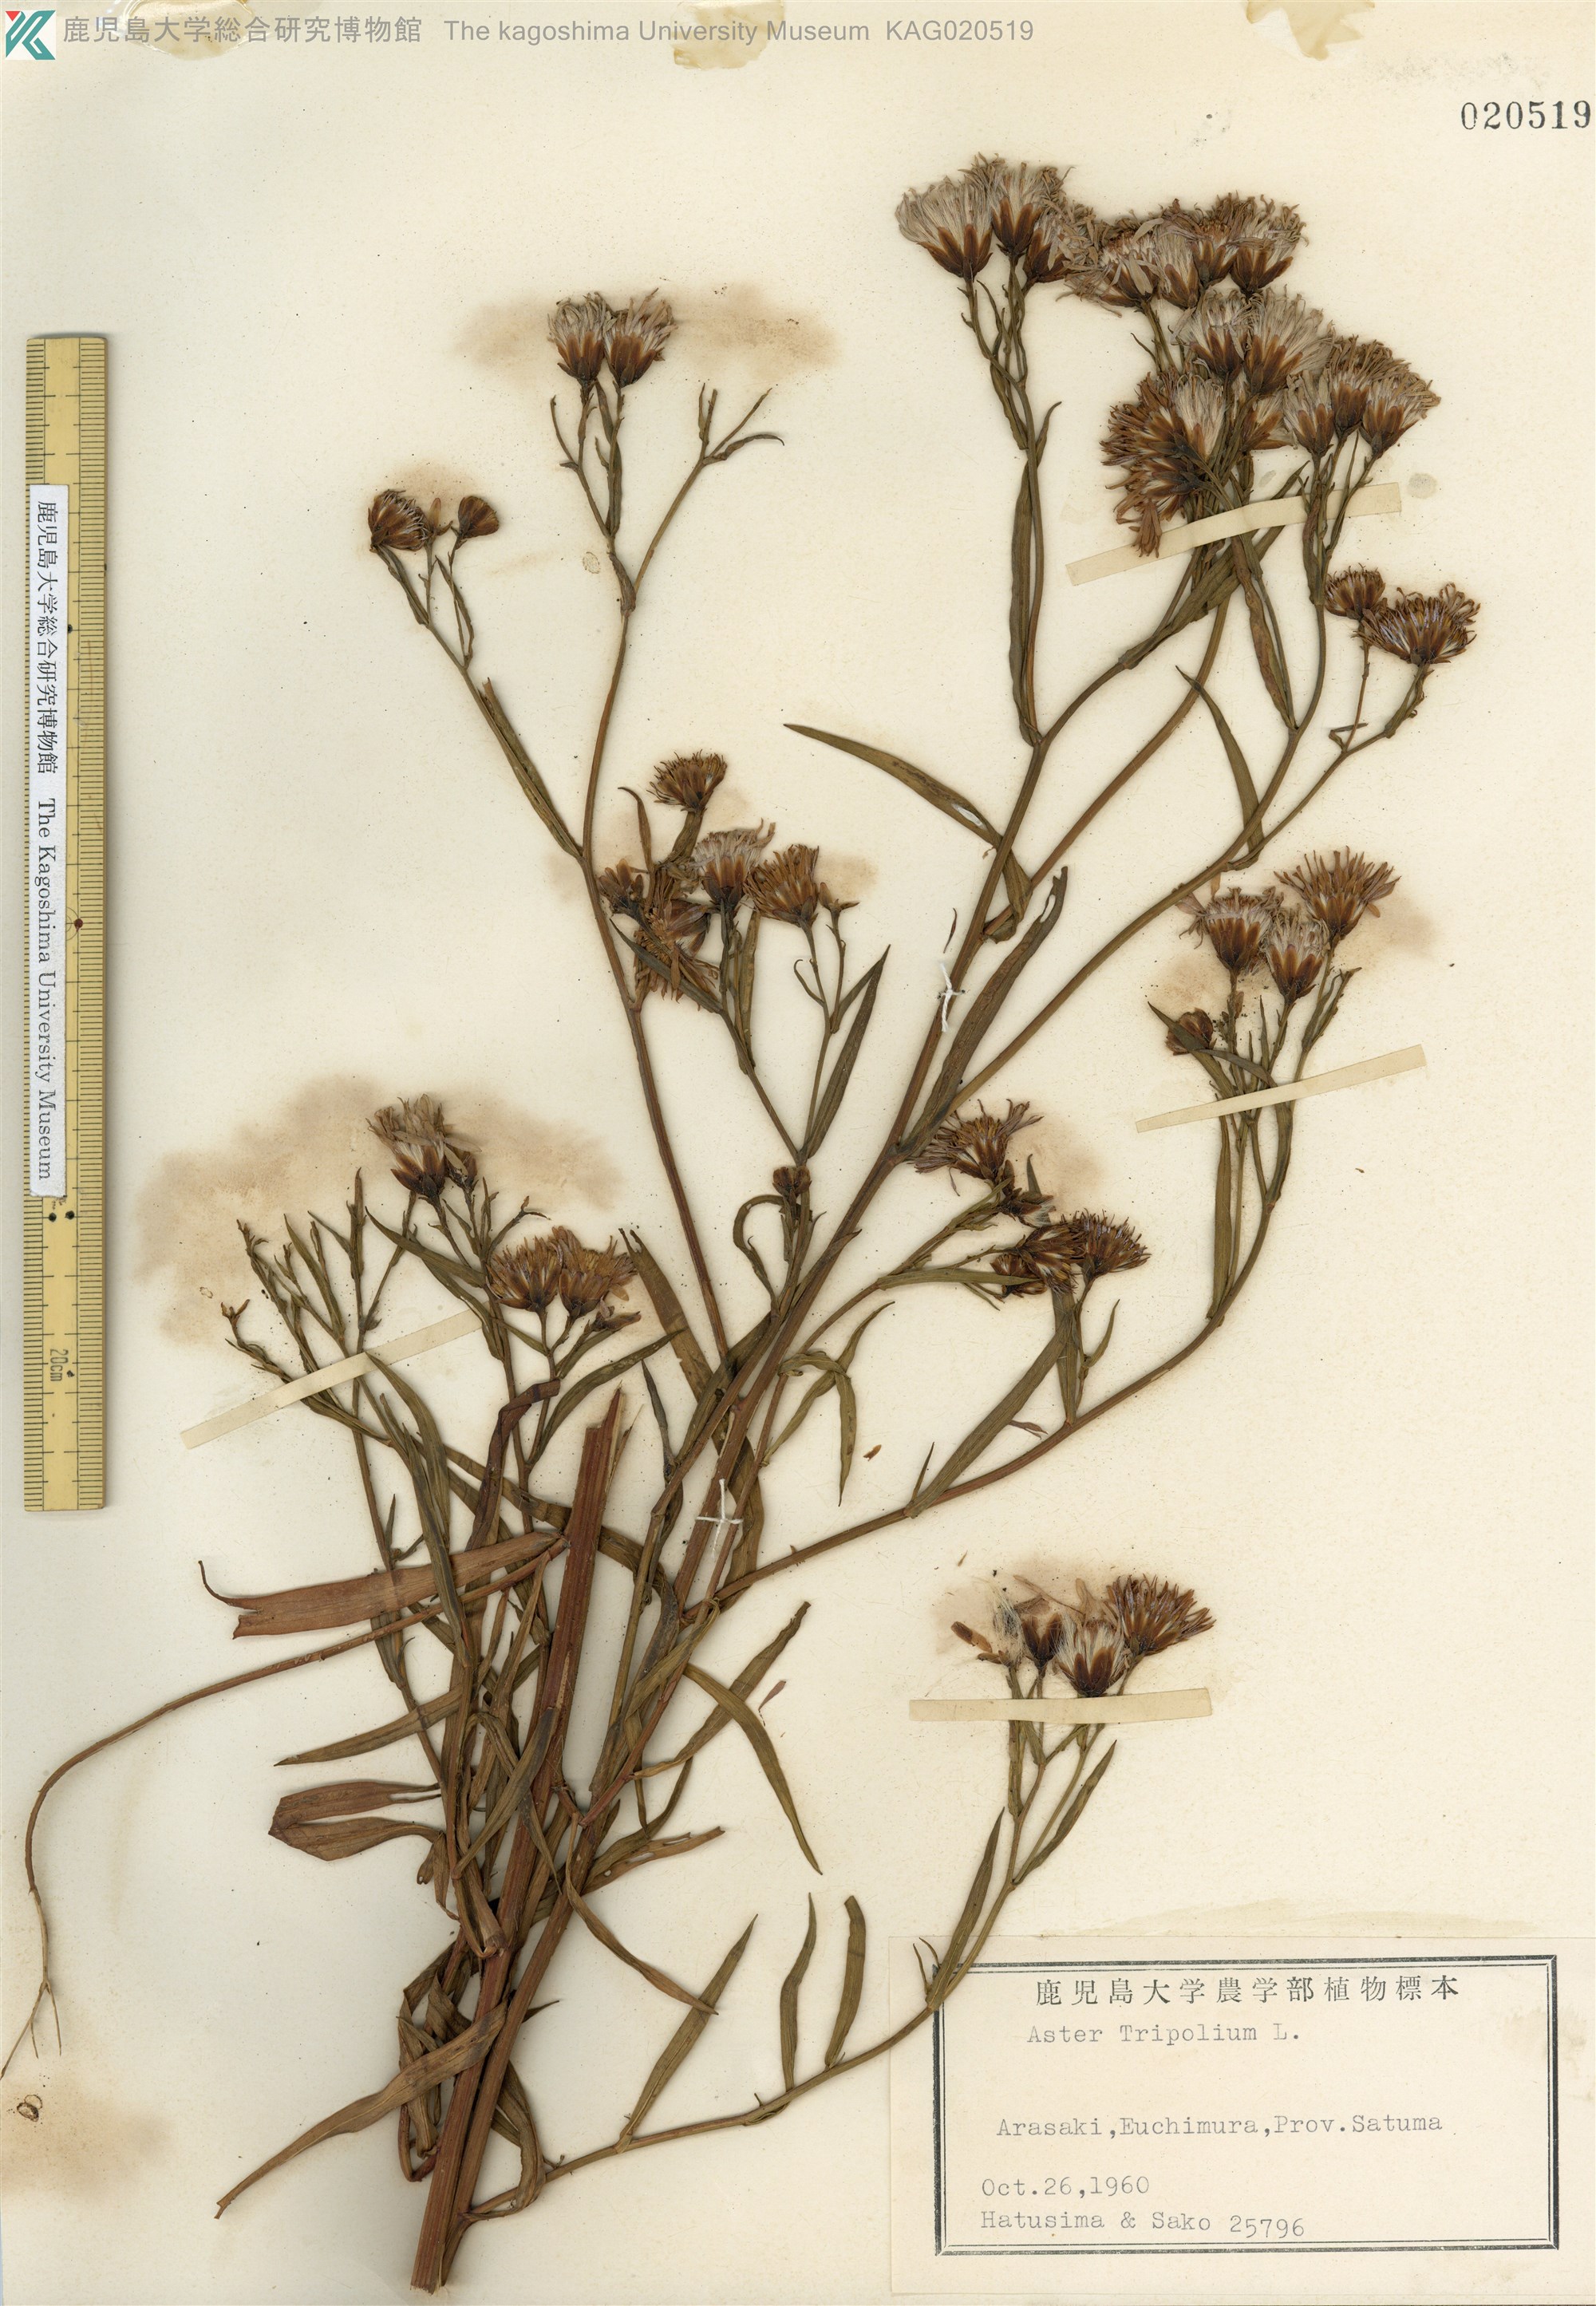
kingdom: Plantae
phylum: Tracheophyta
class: Magnoliopsida
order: Asterales
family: Asteraceae
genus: Tripolium
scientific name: Tripolium pannonicum
